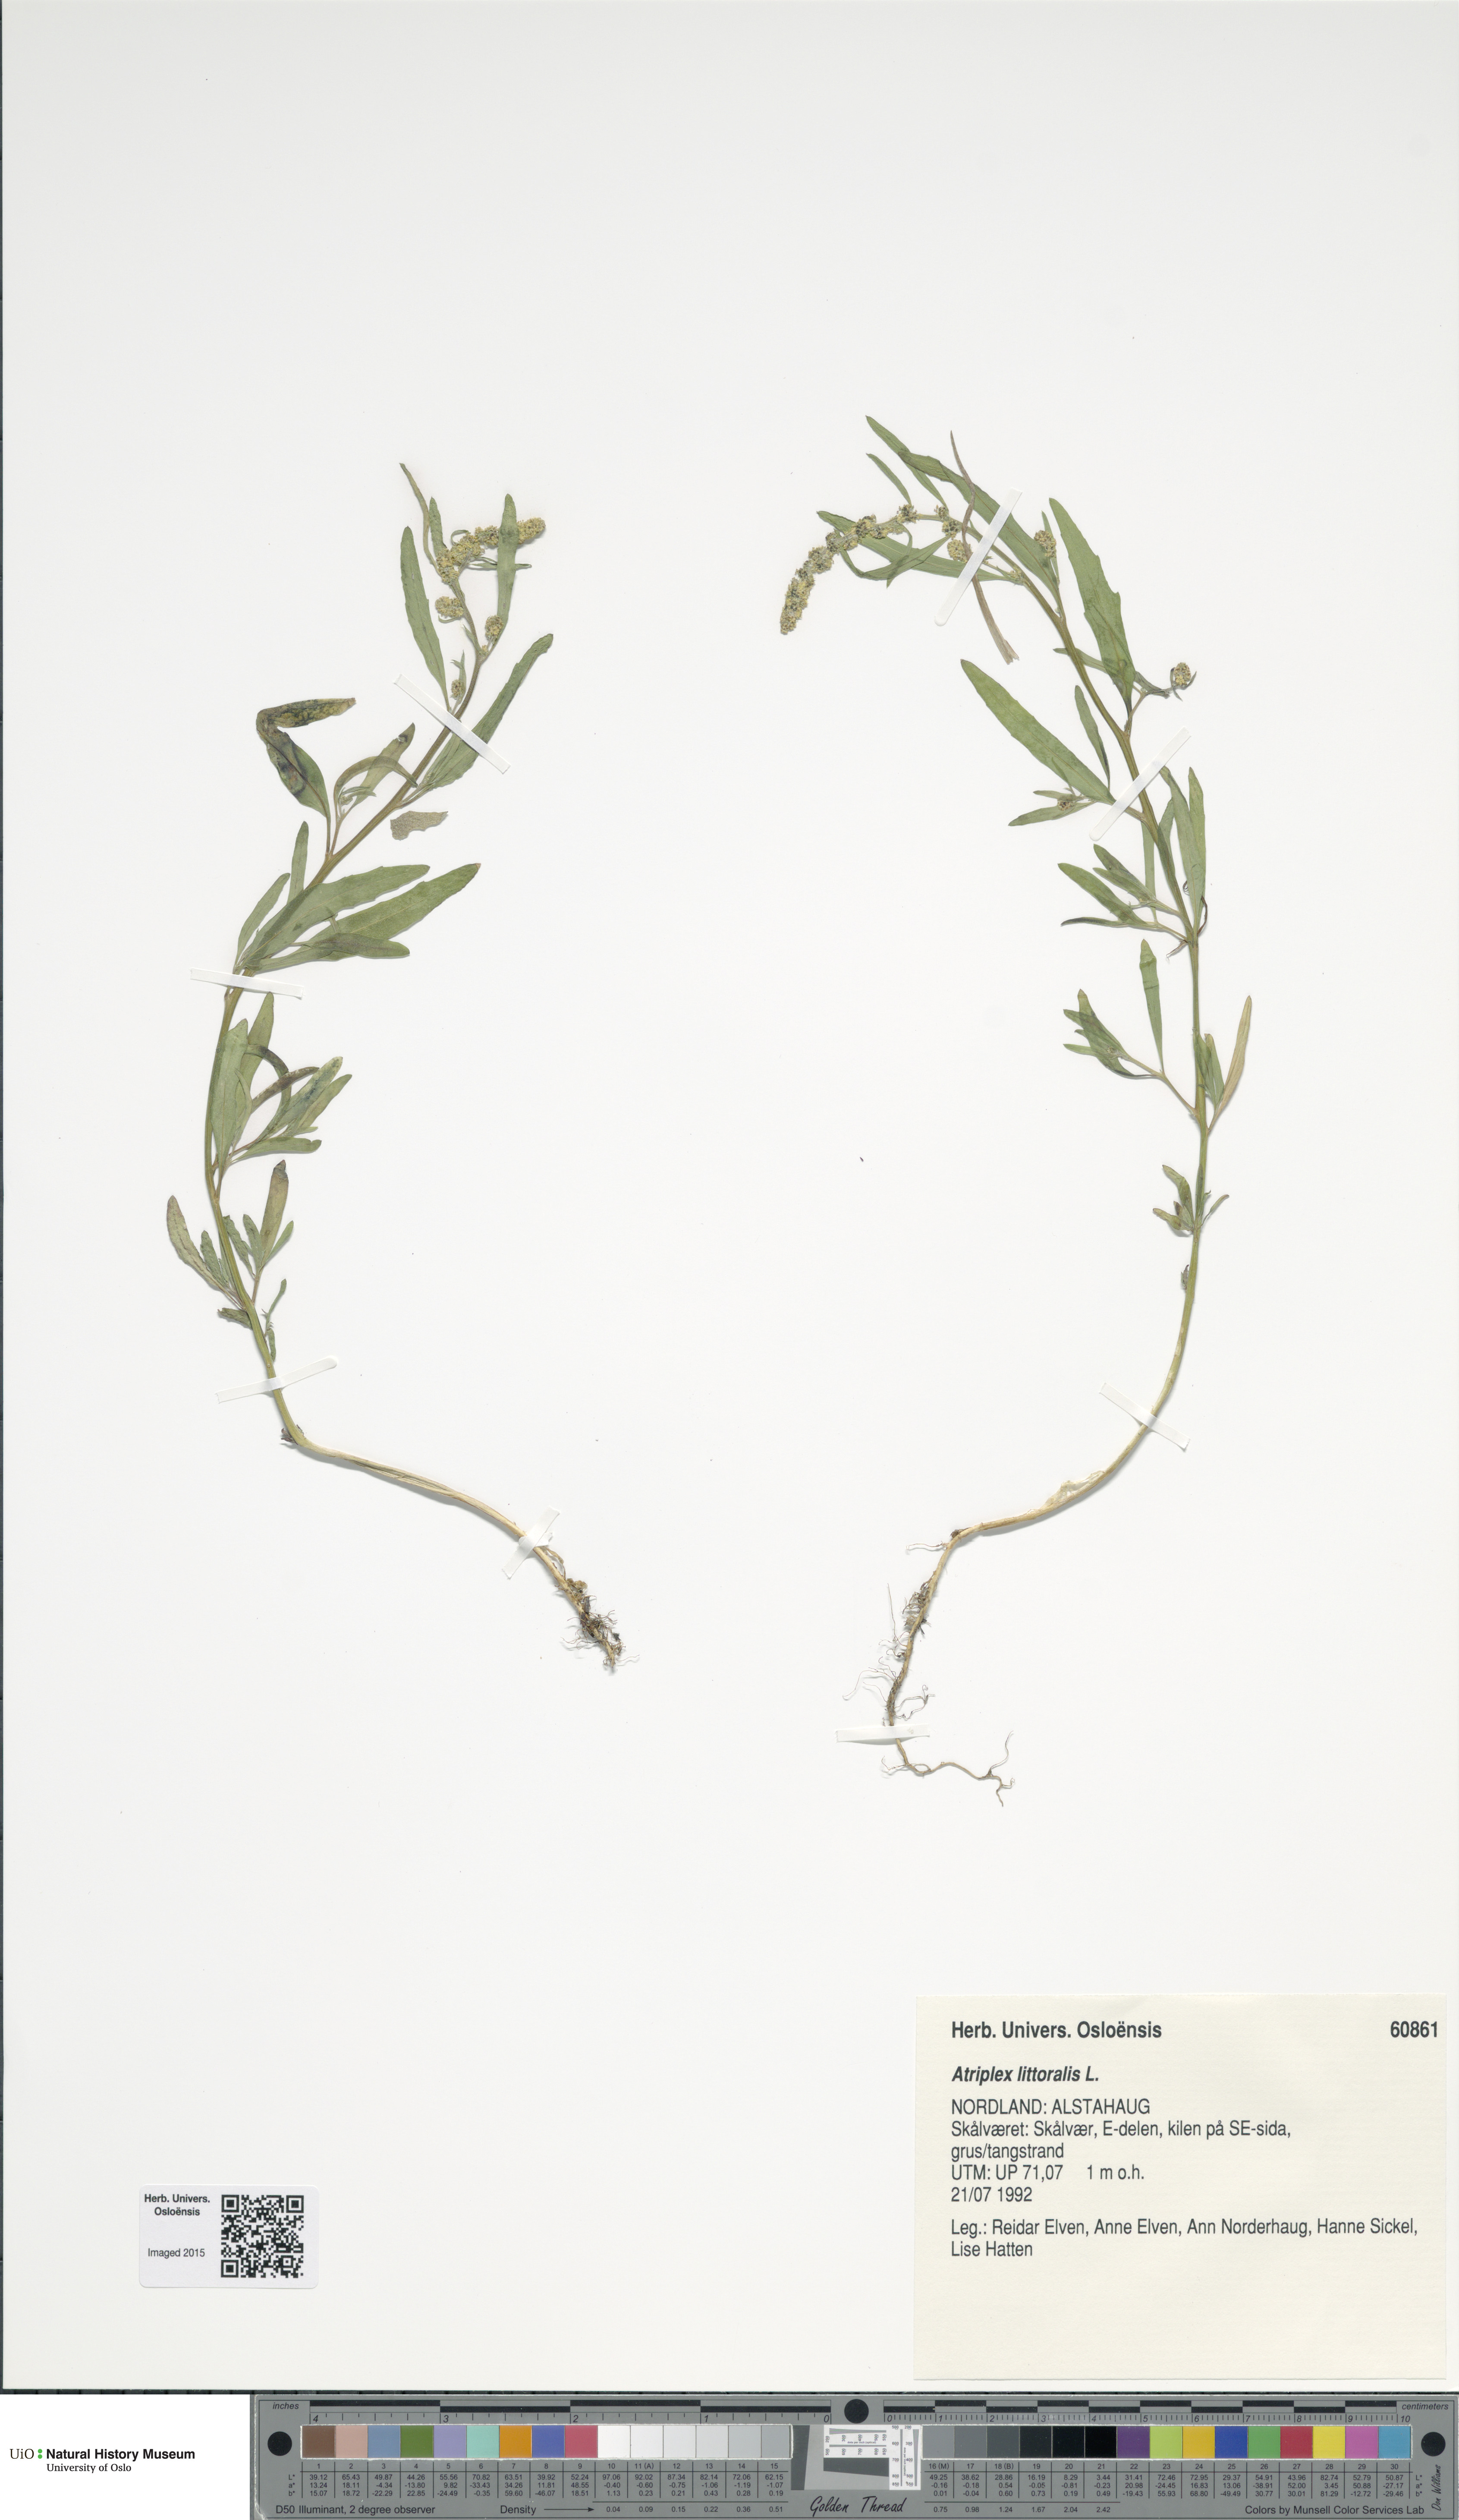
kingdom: Plantae
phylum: Tracheophyta
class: Magnoliopsida
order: Caryophyllales
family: Amaranthaceae
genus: Atriplex
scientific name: Atriplex littoralis
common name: Grass-leaved orache
